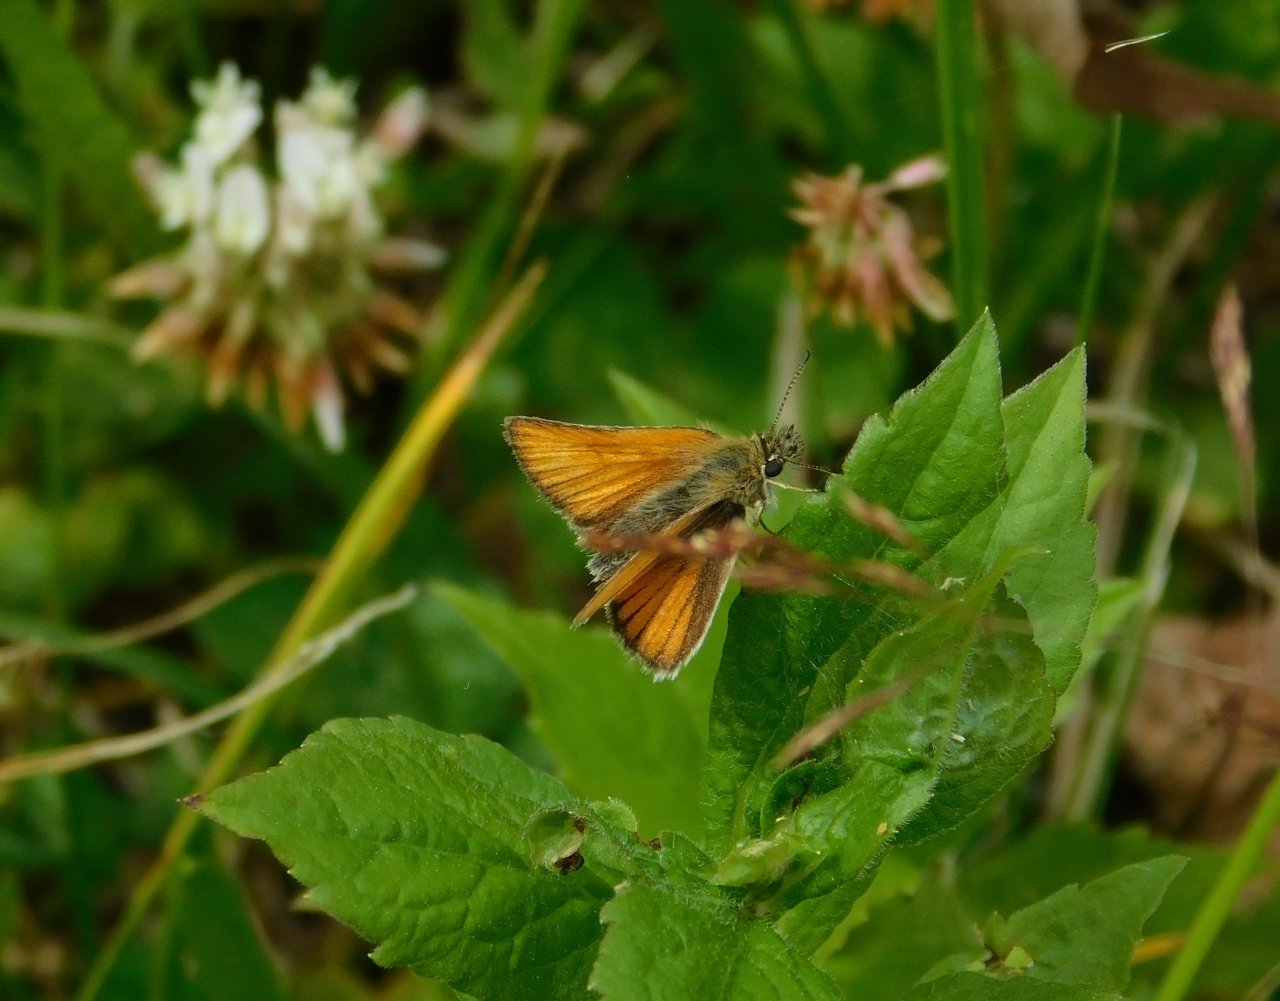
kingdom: Animalia
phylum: Arthropoda
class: Insecta
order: Lepidoptera
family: Hesperiidae
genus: Thymelicus
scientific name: Thymelicus lineola
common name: European Skipper
